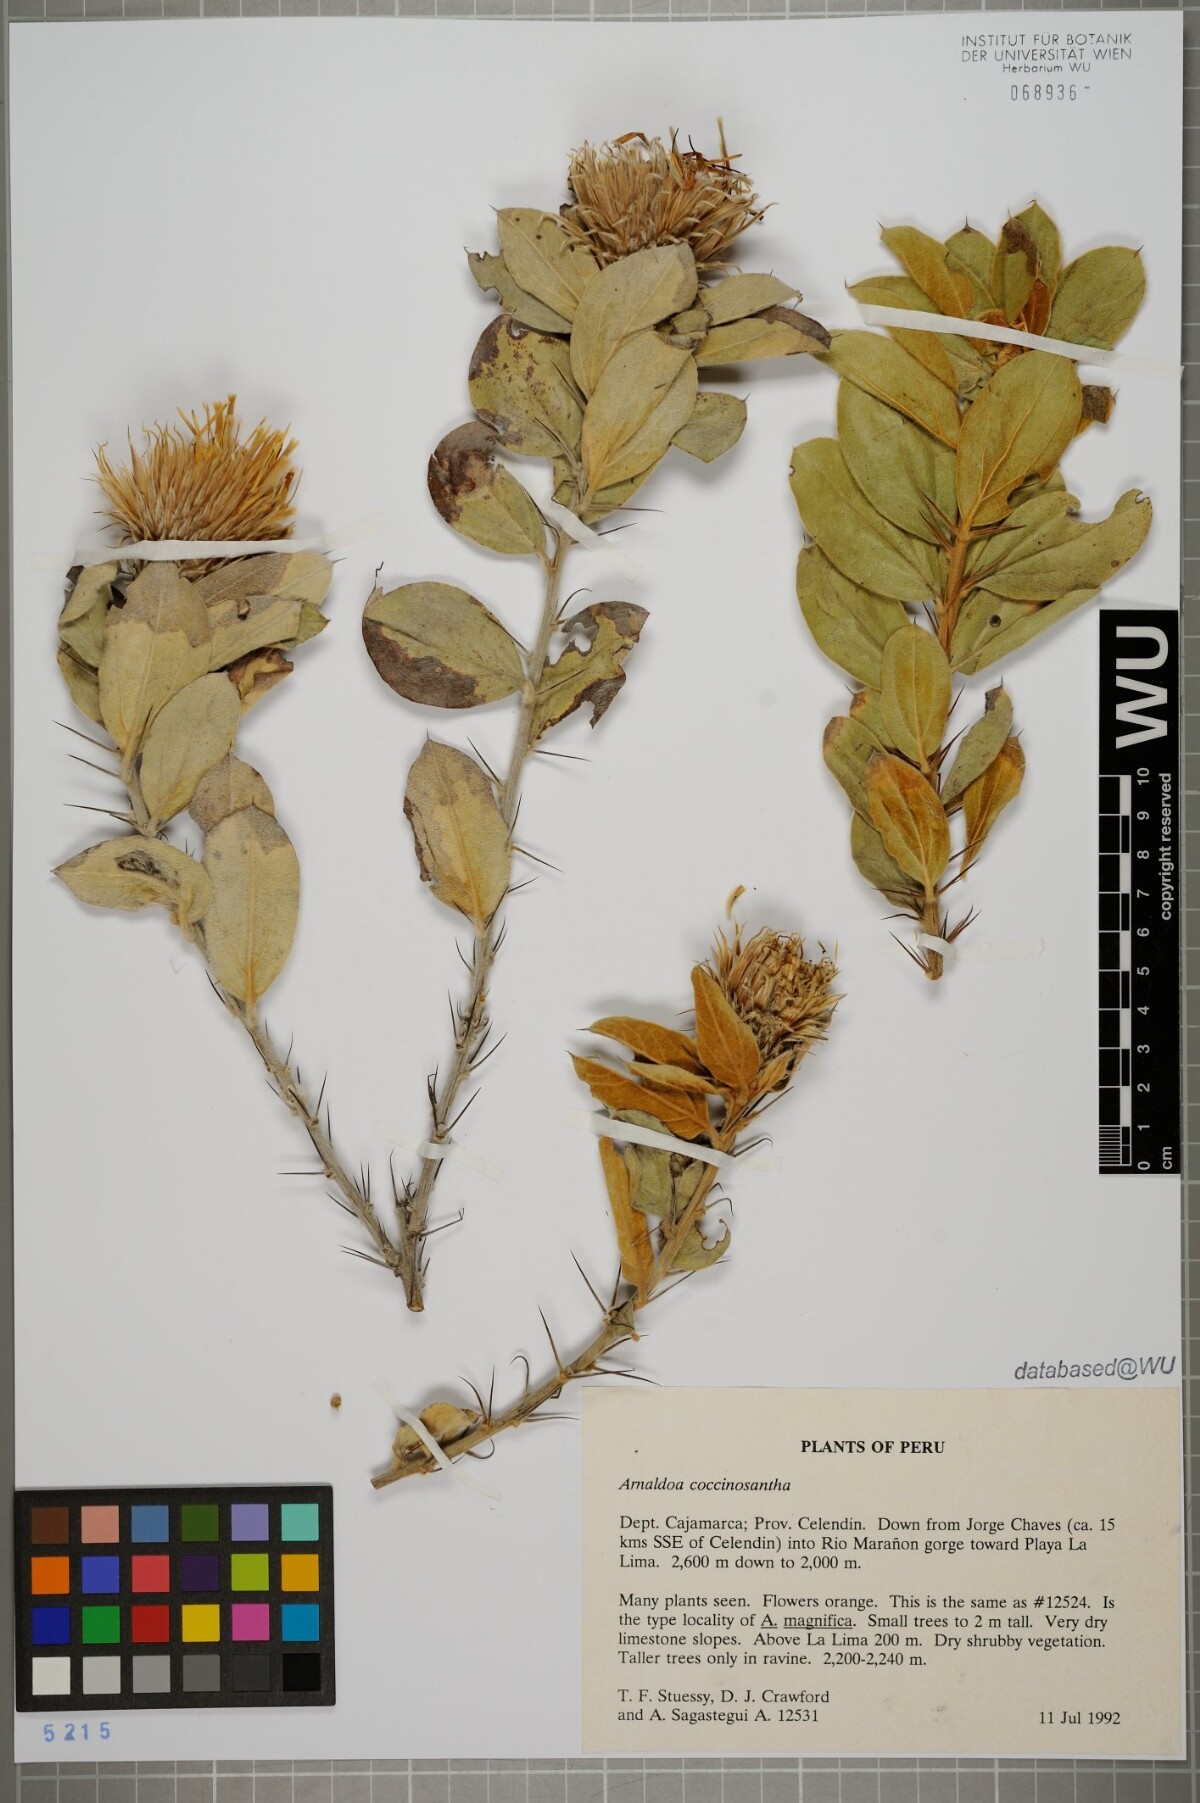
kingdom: Plantae
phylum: Tracheophyta
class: Magnoliopsida
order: Asterales
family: Asteraceae
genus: Arnaldoa
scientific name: Arnaldoa weberbaueri
